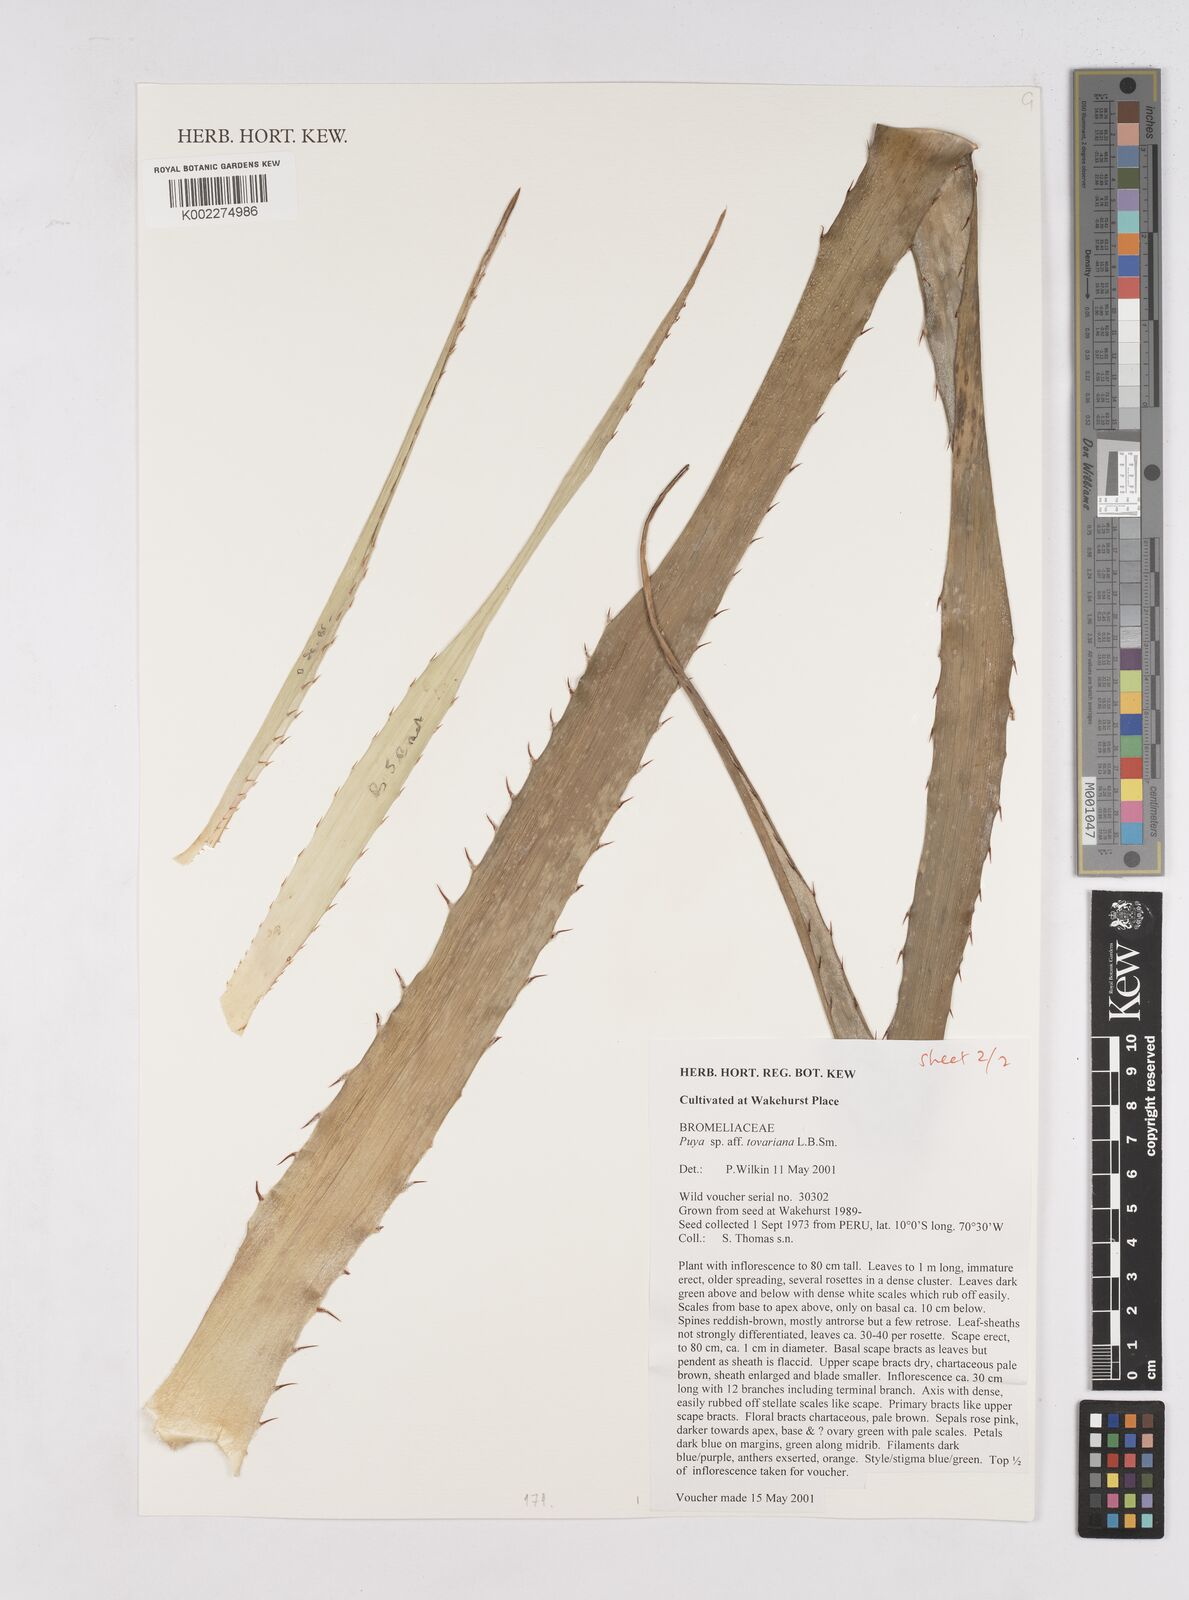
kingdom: Plantae
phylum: Tracheophyta
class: Liliopsida
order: Poales
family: Bromeliaceae
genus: Puya
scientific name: Puya tovariana
